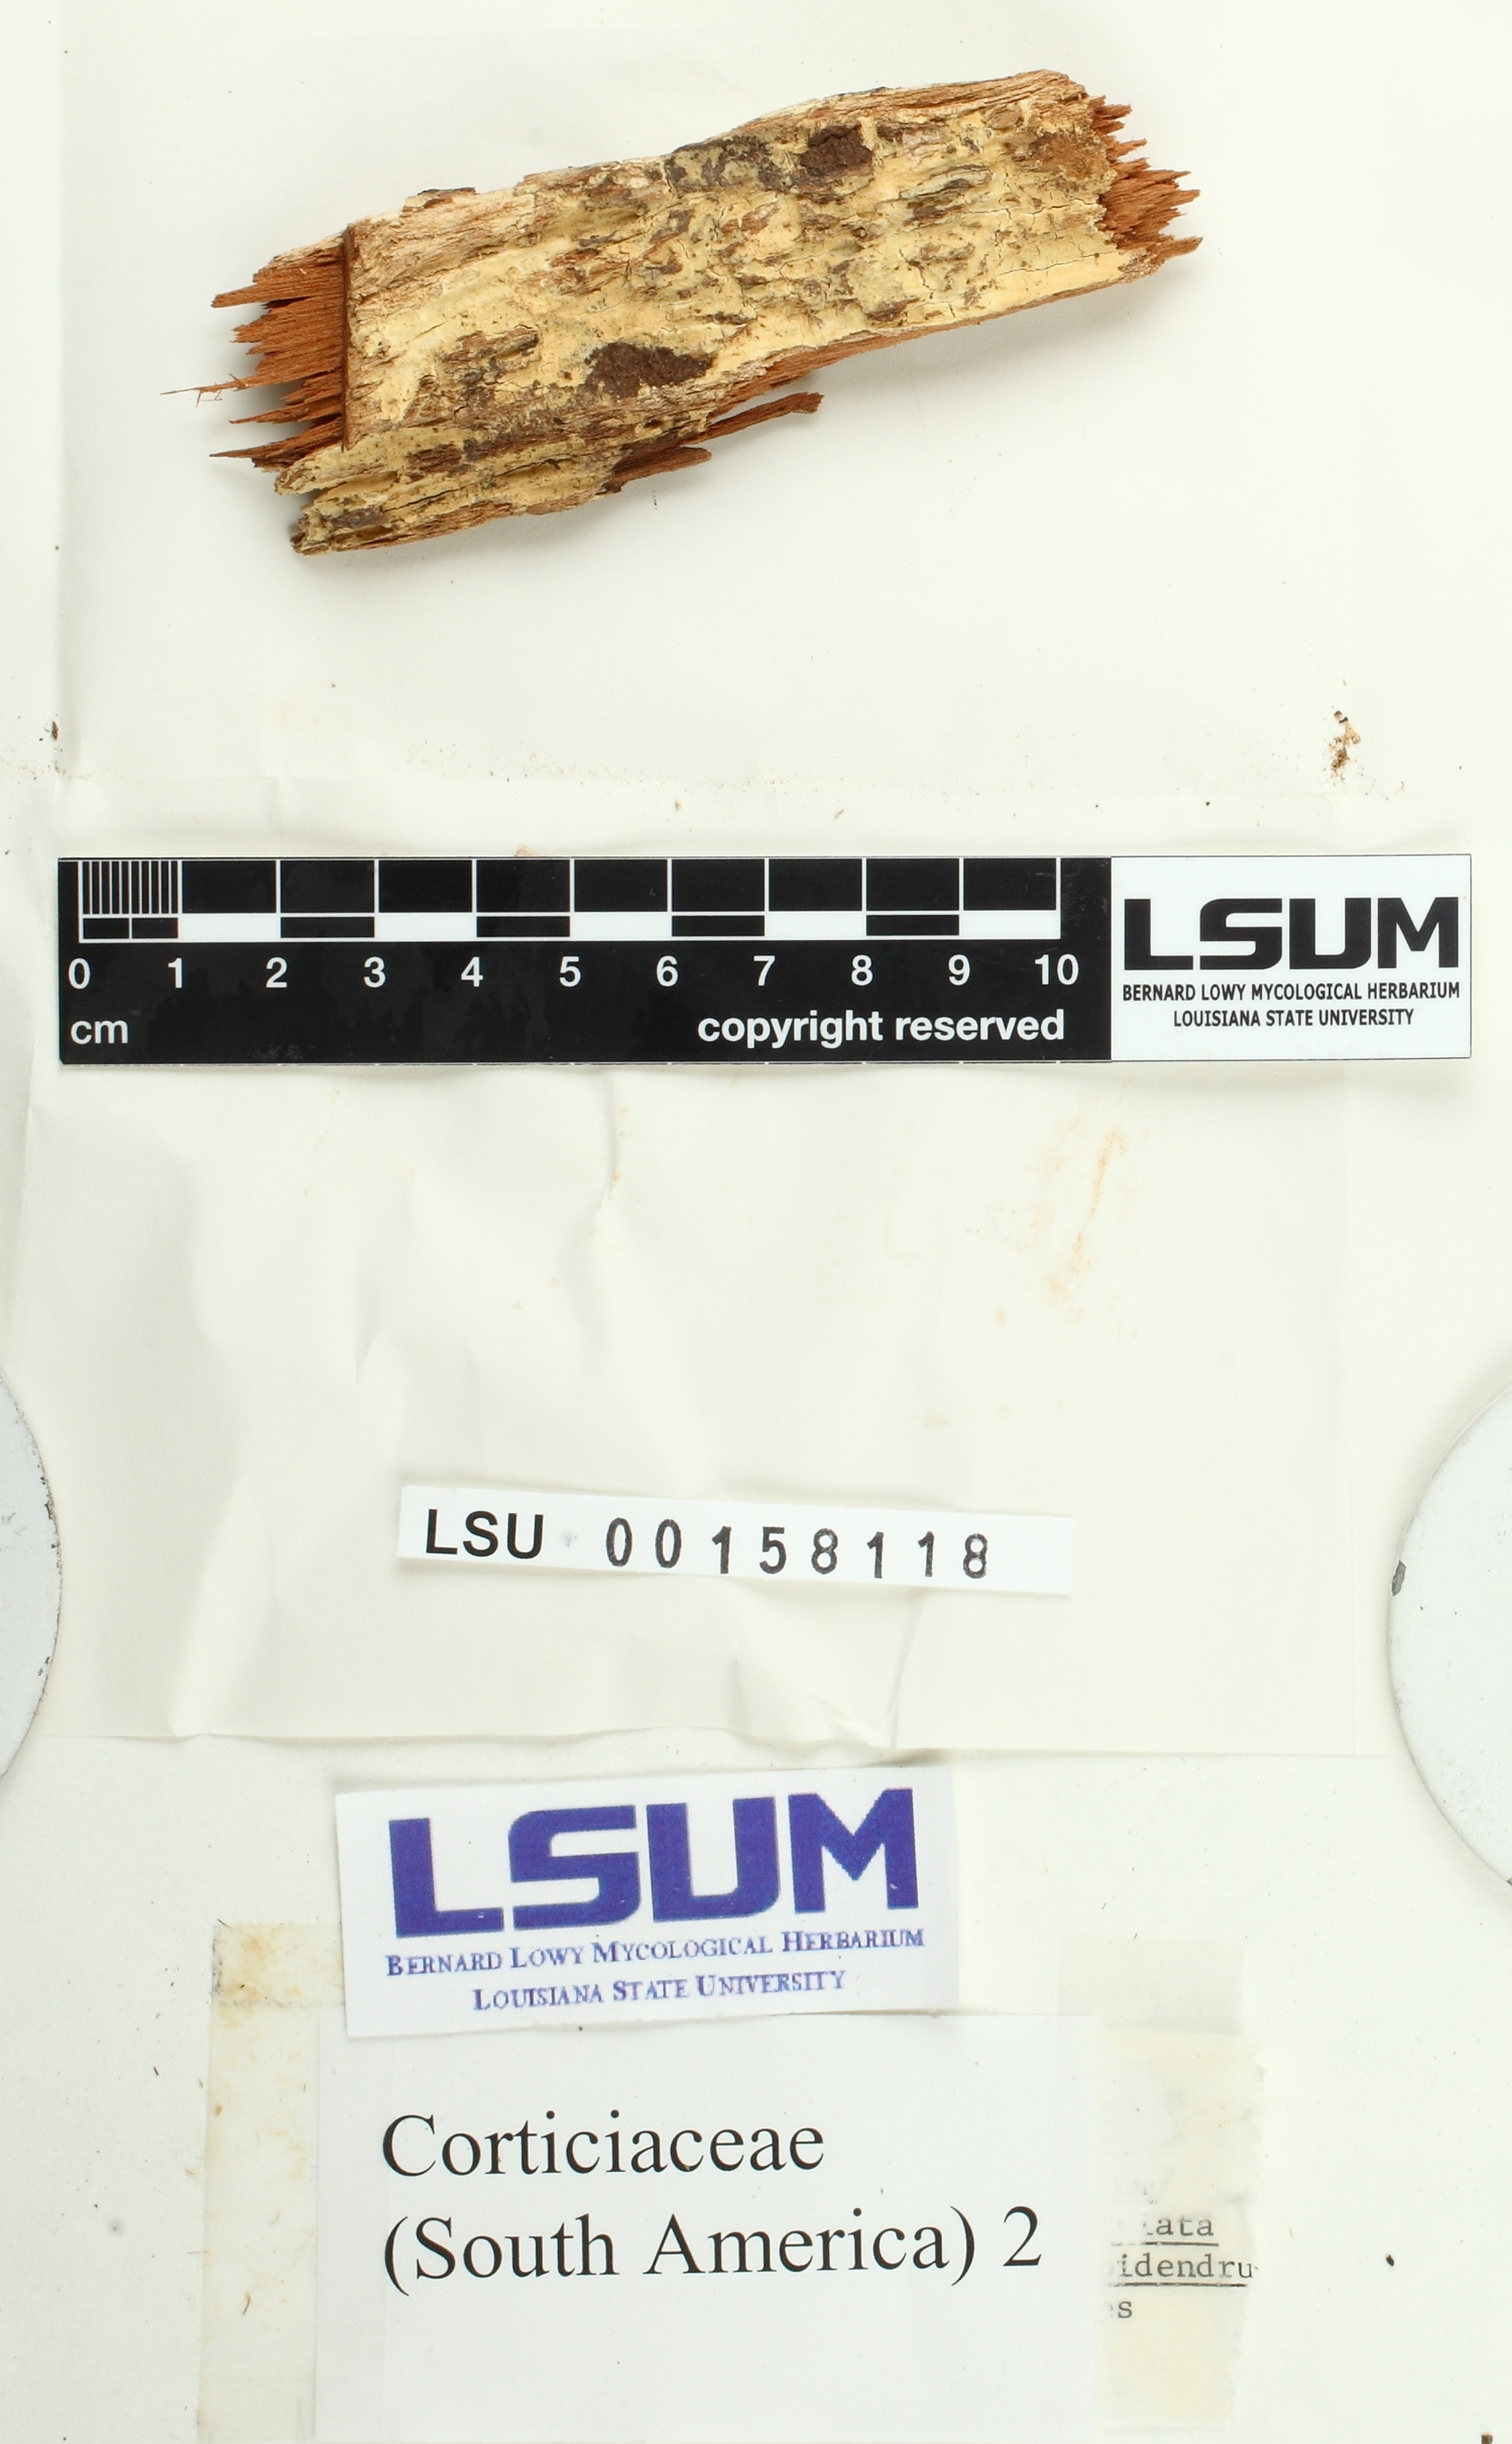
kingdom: Fungi
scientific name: Fungi
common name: Fungi
